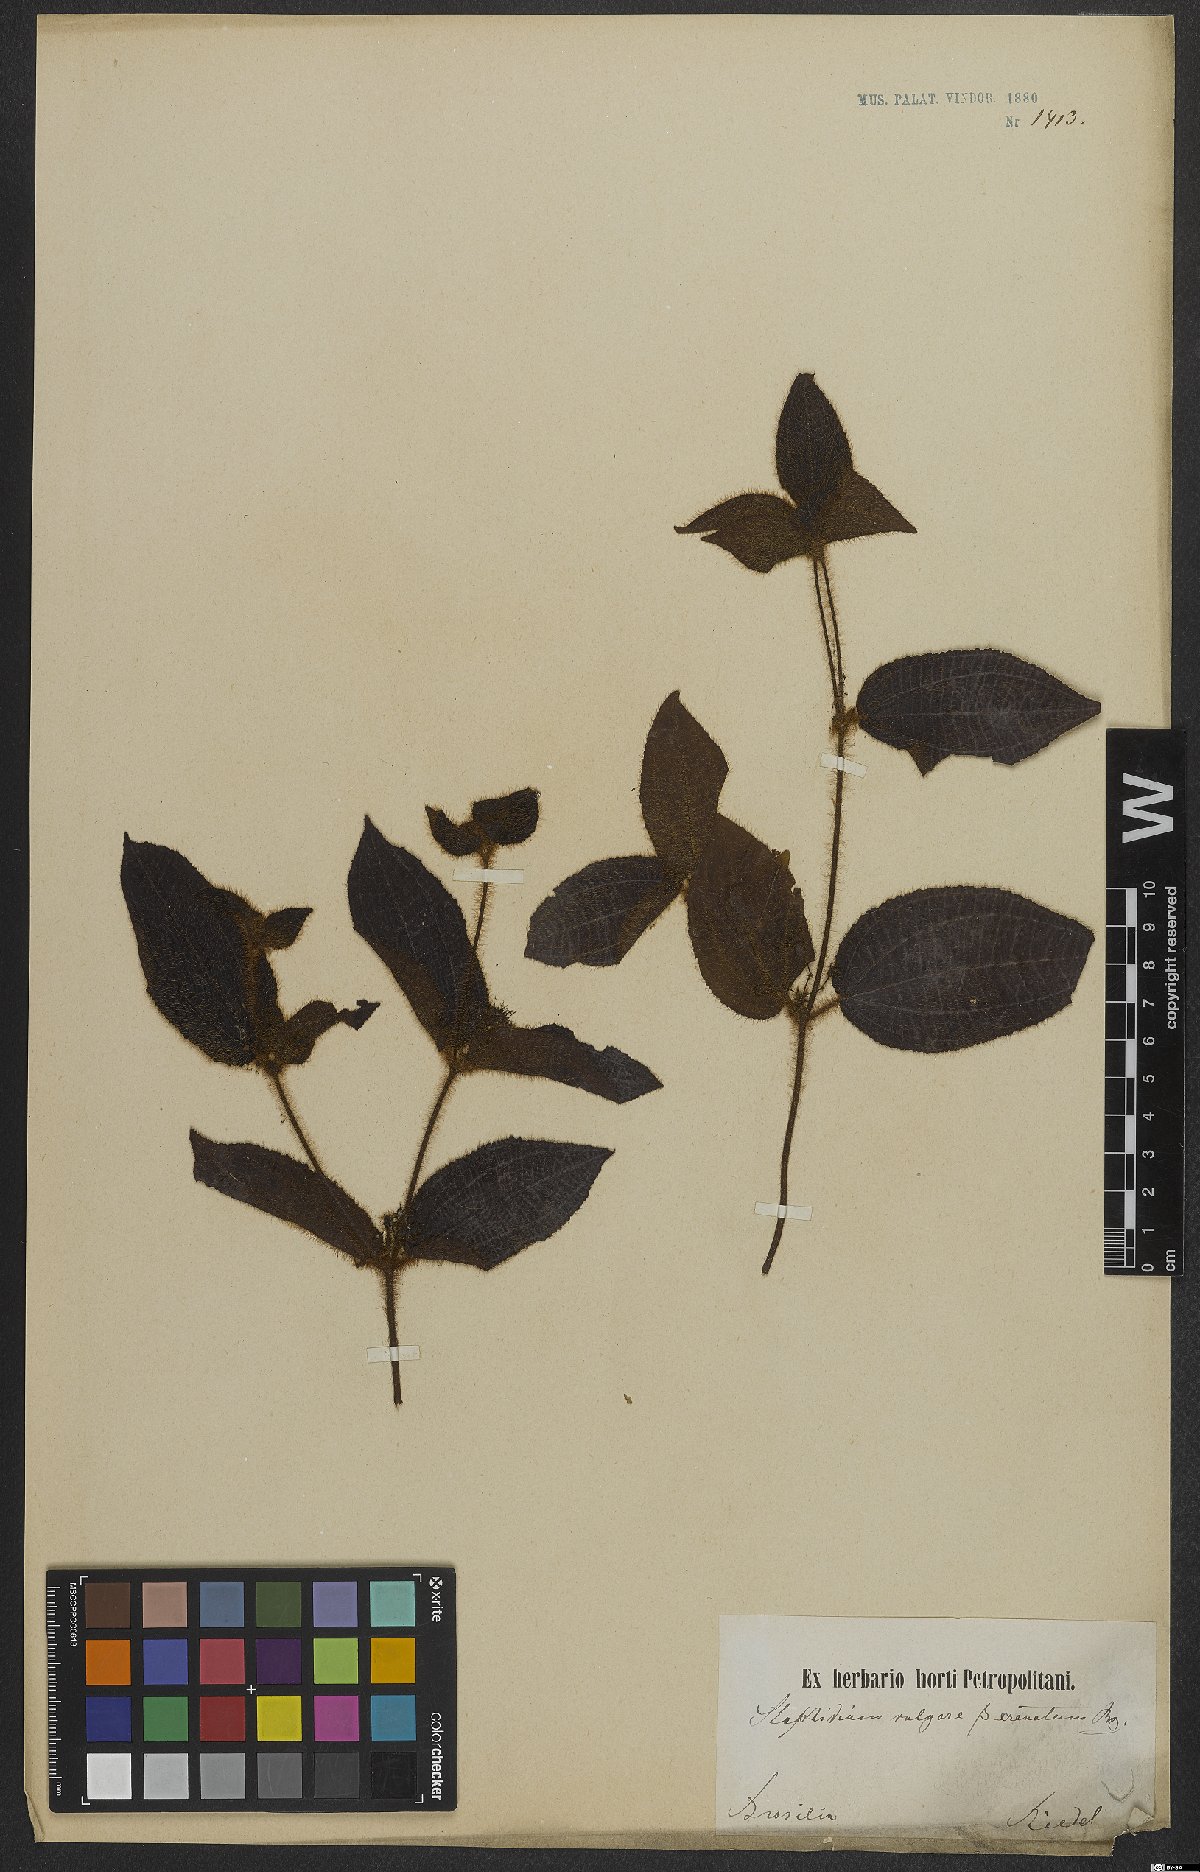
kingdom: Plantae
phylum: Tracheophyta
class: Magnoliopsida
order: Myrtales
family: Melastomataceae
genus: Miconia
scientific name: Miconia crenata
